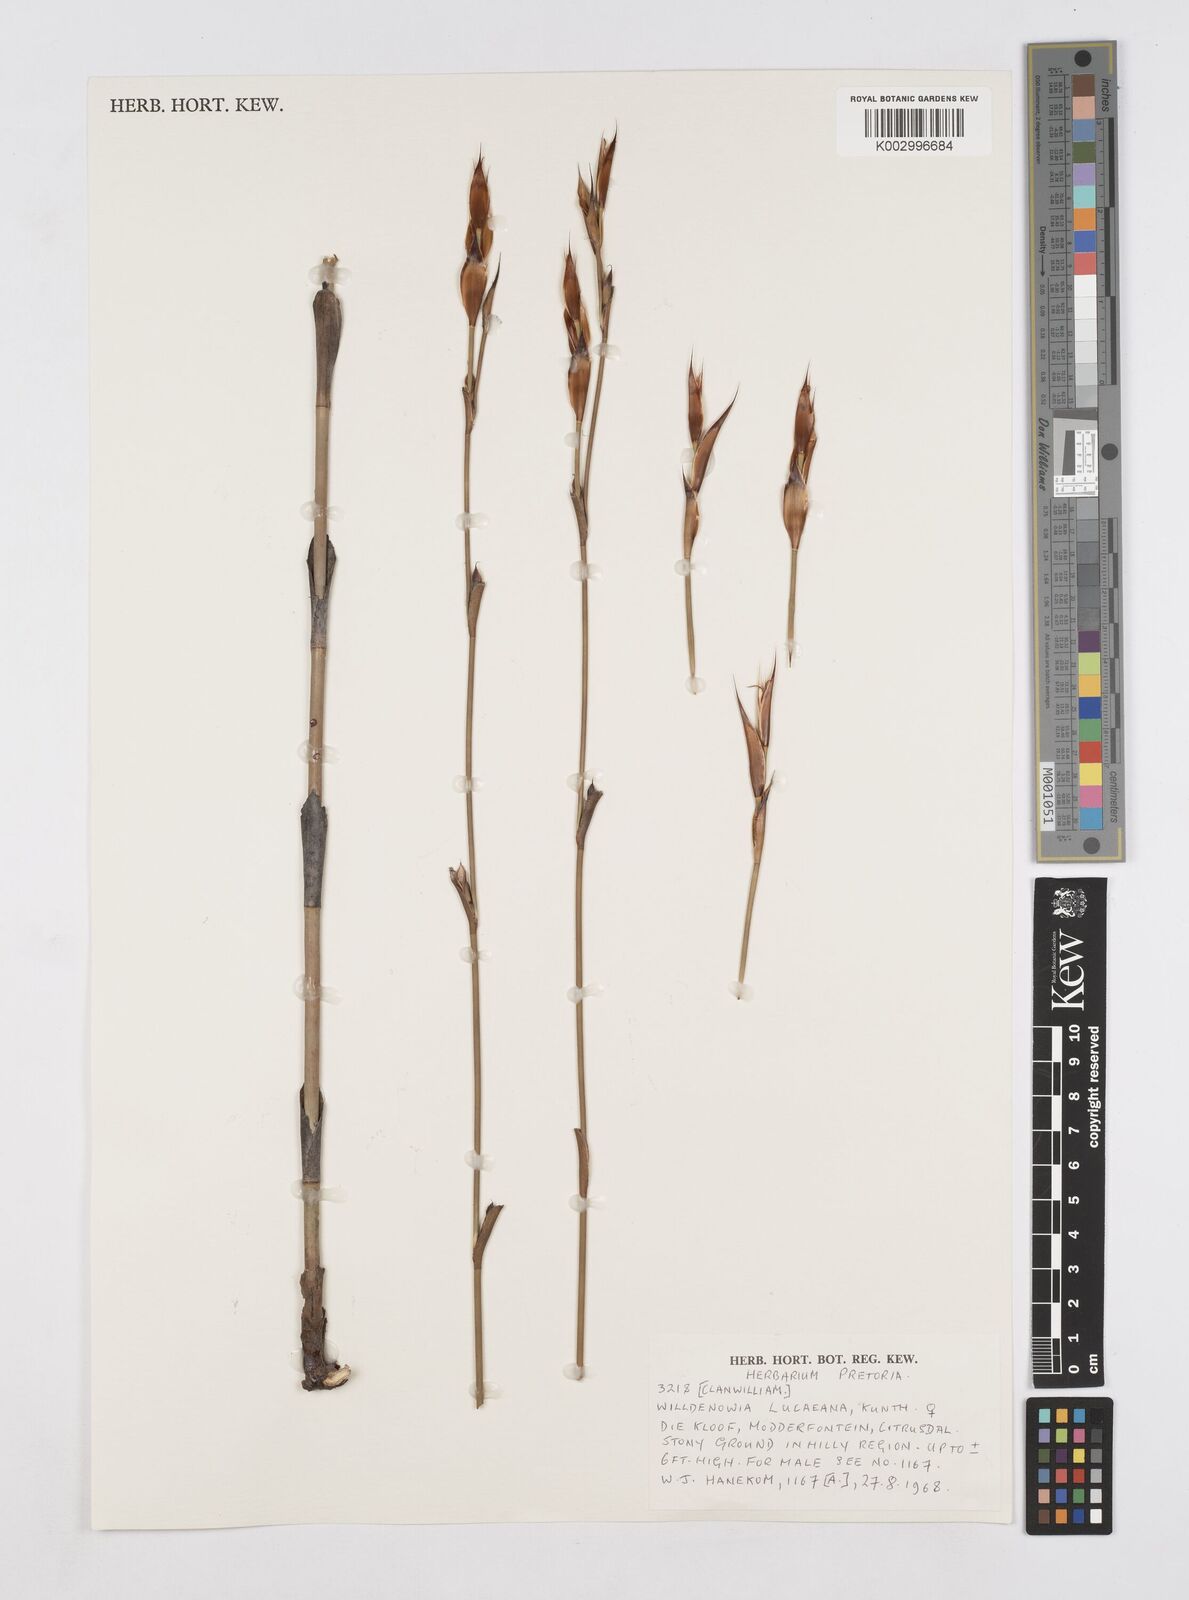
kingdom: Plantae
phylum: Tracheophyta
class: Liliopsida
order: Poales
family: Restionaceae
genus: Willdenowia
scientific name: Willdenowia glomerata
